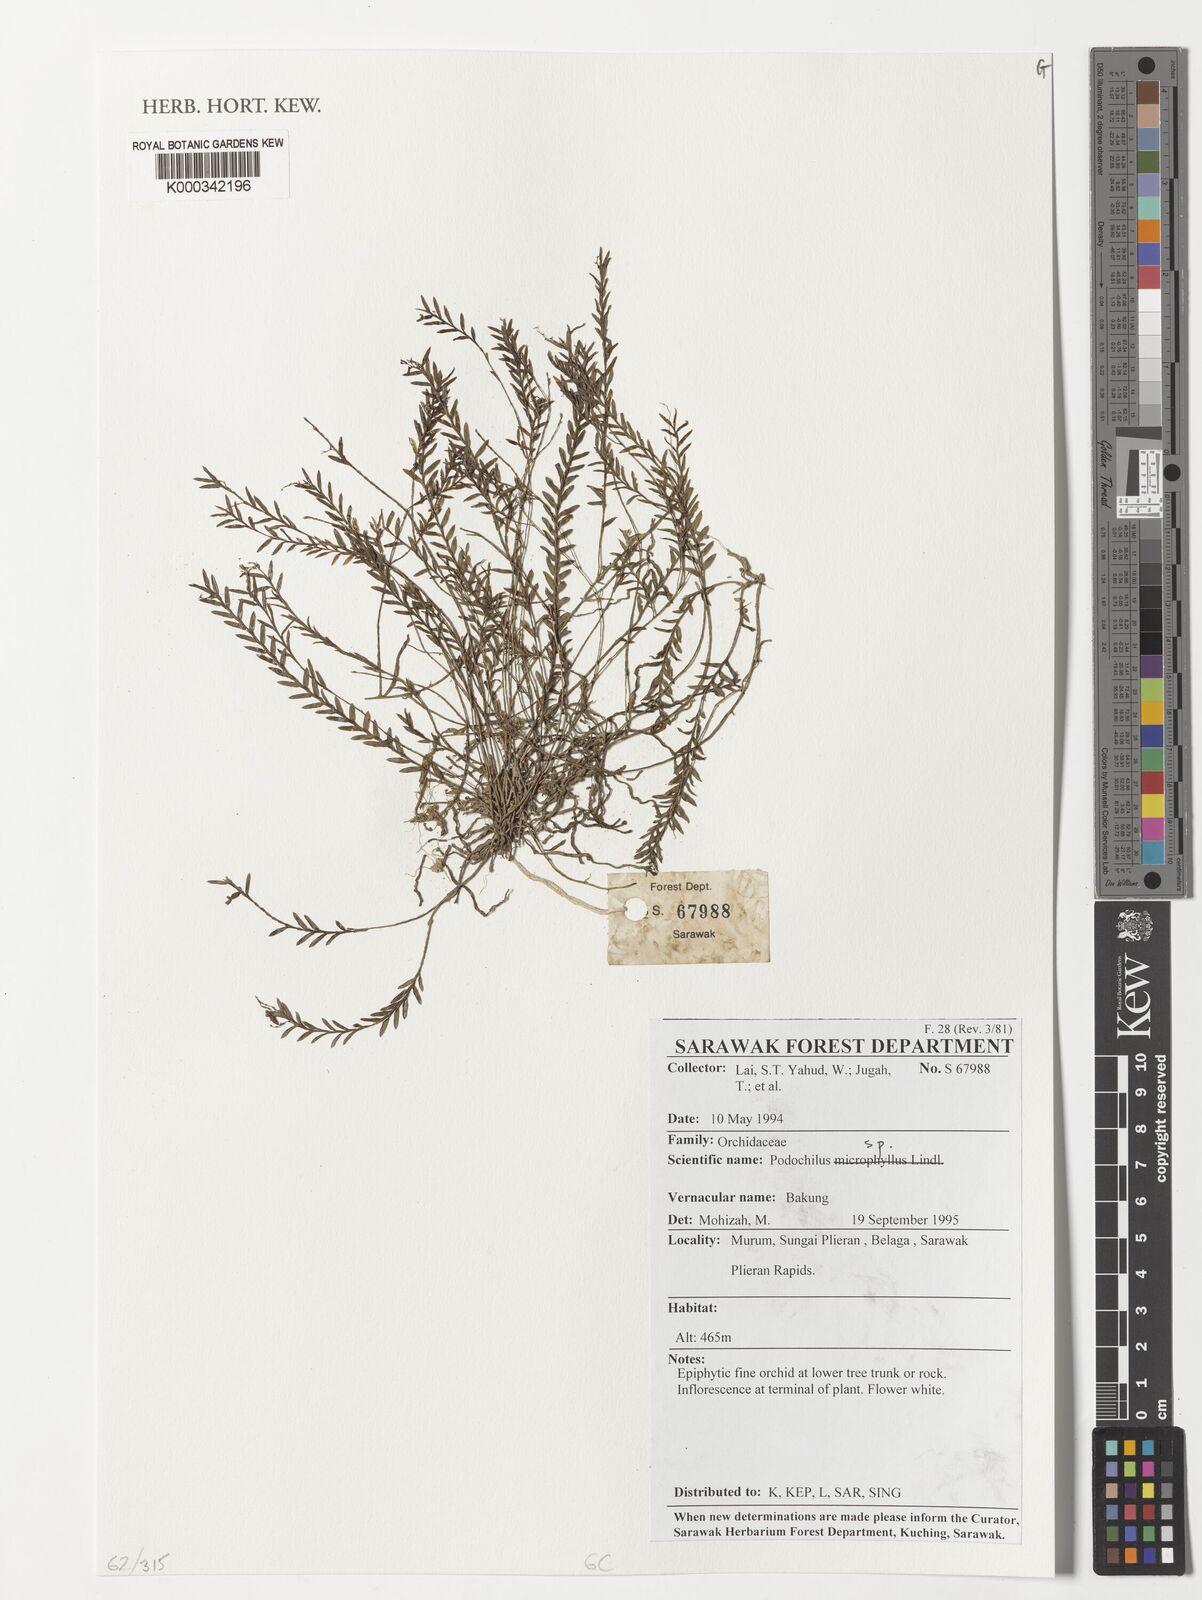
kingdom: Plantae
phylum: Tracheophyta
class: Liliopsida
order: Asparagales
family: Orchidaceae
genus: Podochilus
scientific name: Podochilus
